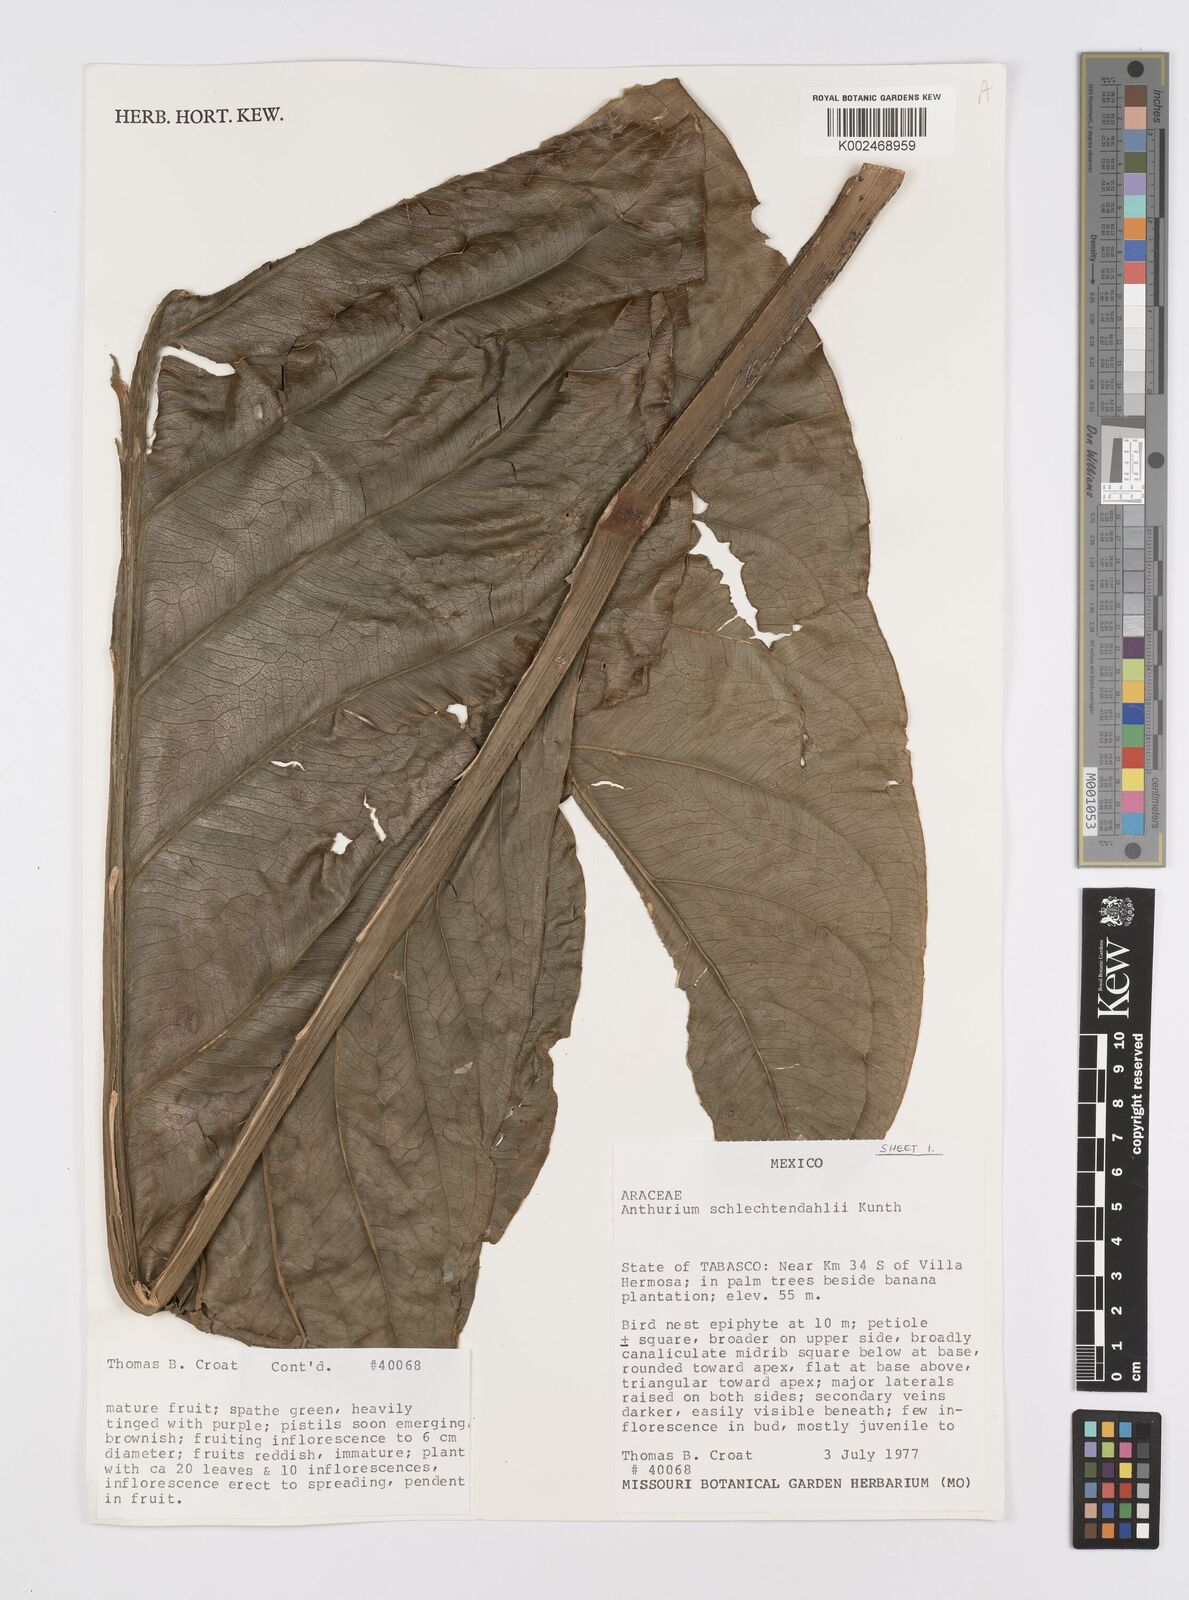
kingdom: Plantae
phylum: Tracheophyta
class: Liliopsida
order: Alismatales
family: Araceae
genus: Anthurium
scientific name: Anthurium schlechtendalii
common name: Laceleaf
